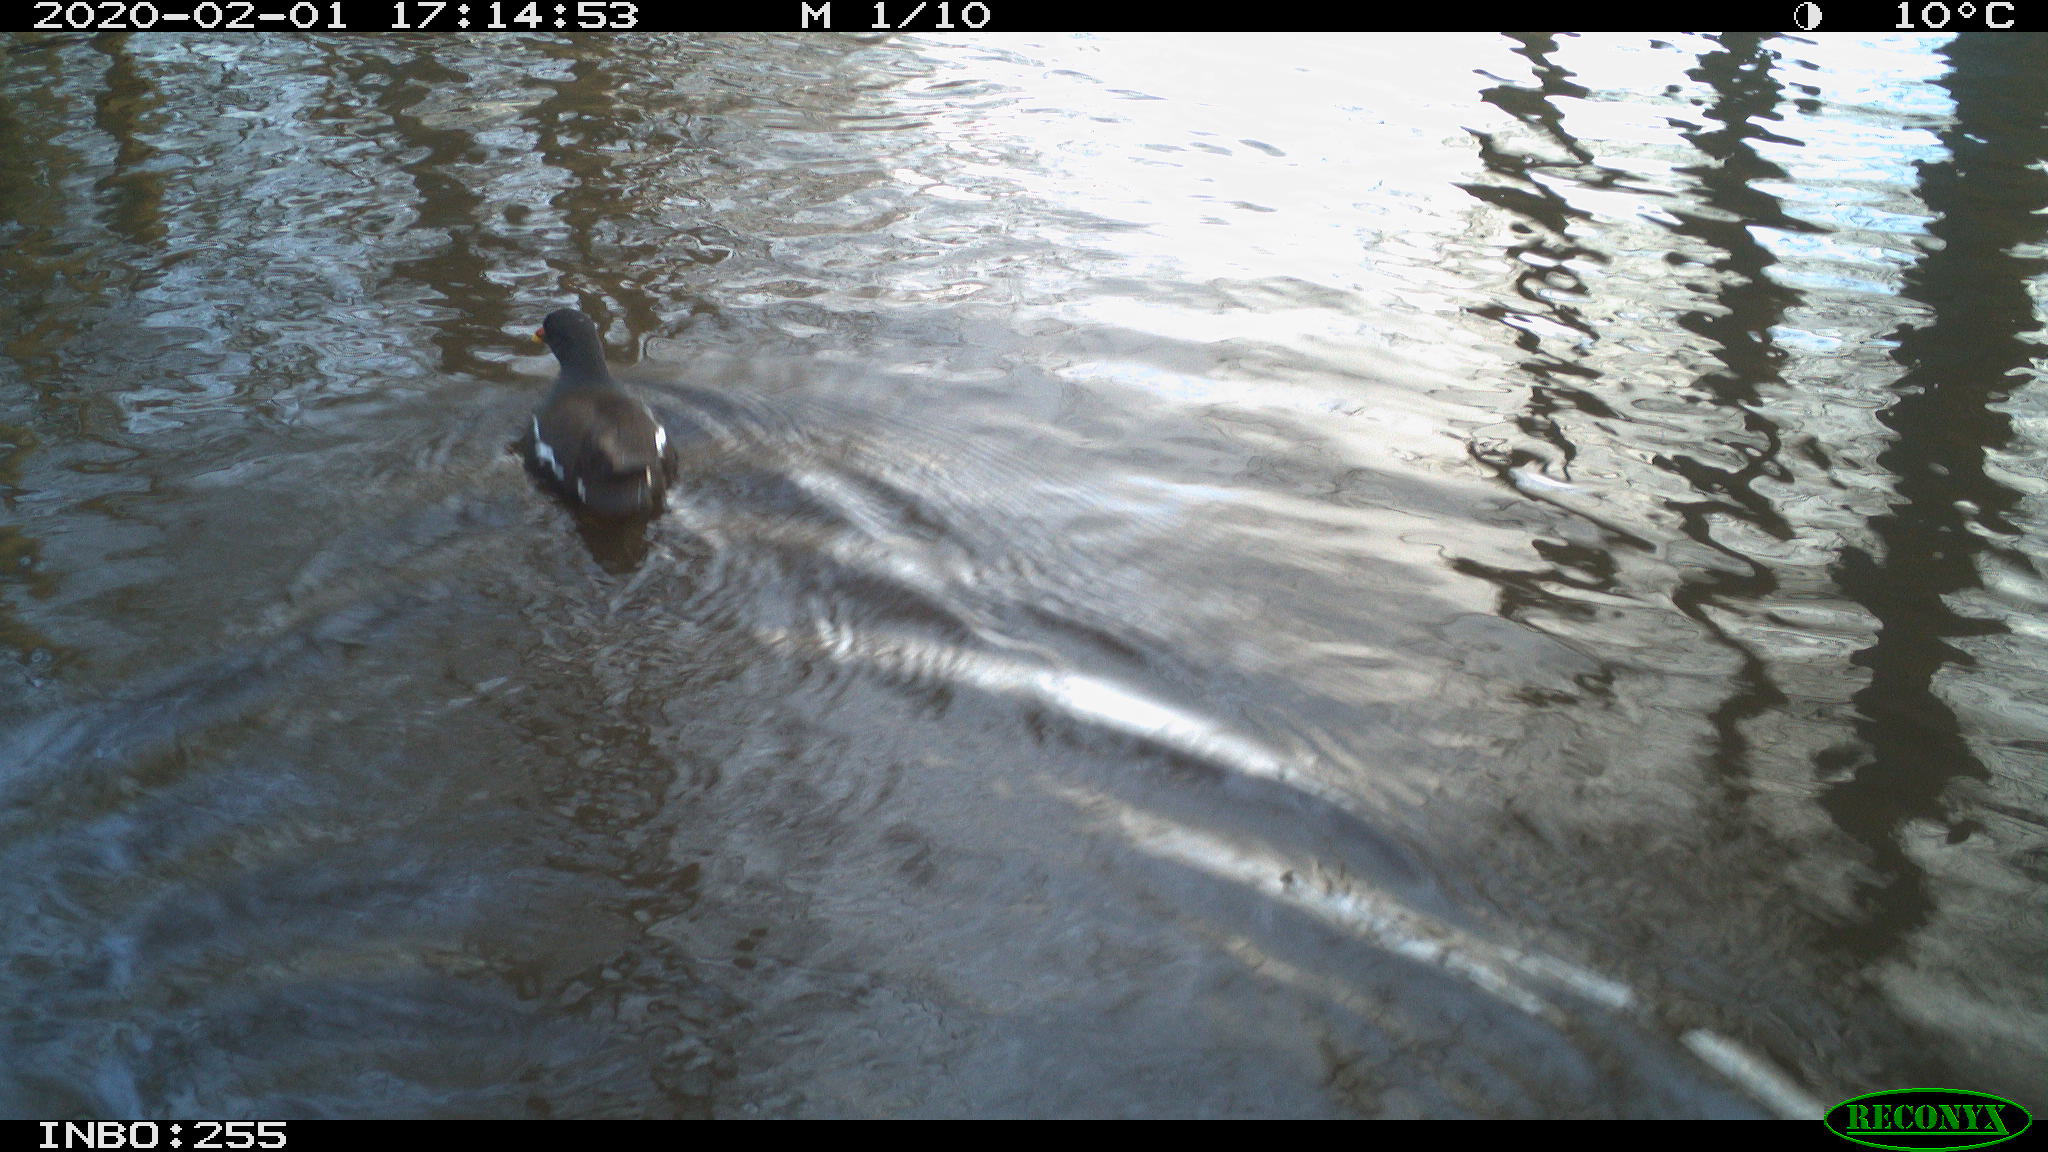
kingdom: Animalia
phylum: Chordata
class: Aves
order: Gruiformes
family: Rallidae
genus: Gallinula
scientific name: Gallinula chloropus
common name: Common moorhen
